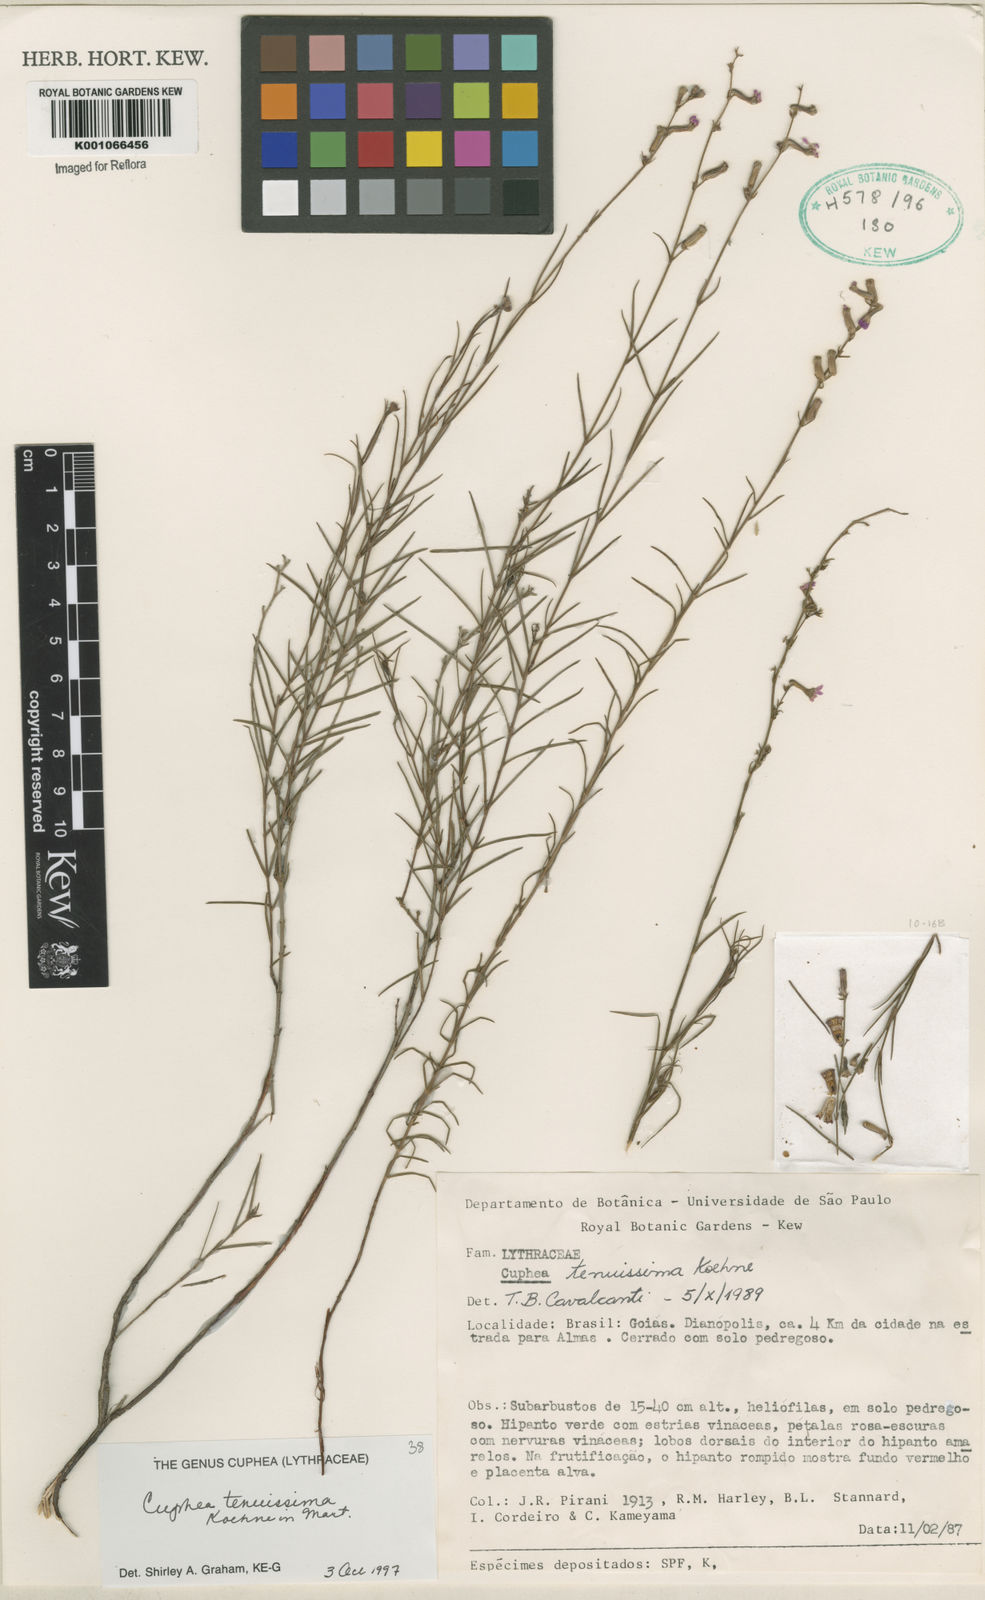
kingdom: Plantae
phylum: Tracheophyta
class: Magnoliopsida
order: Myrtales
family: Lythraceae
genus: Cuphea
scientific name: Cuphea tenuissima
